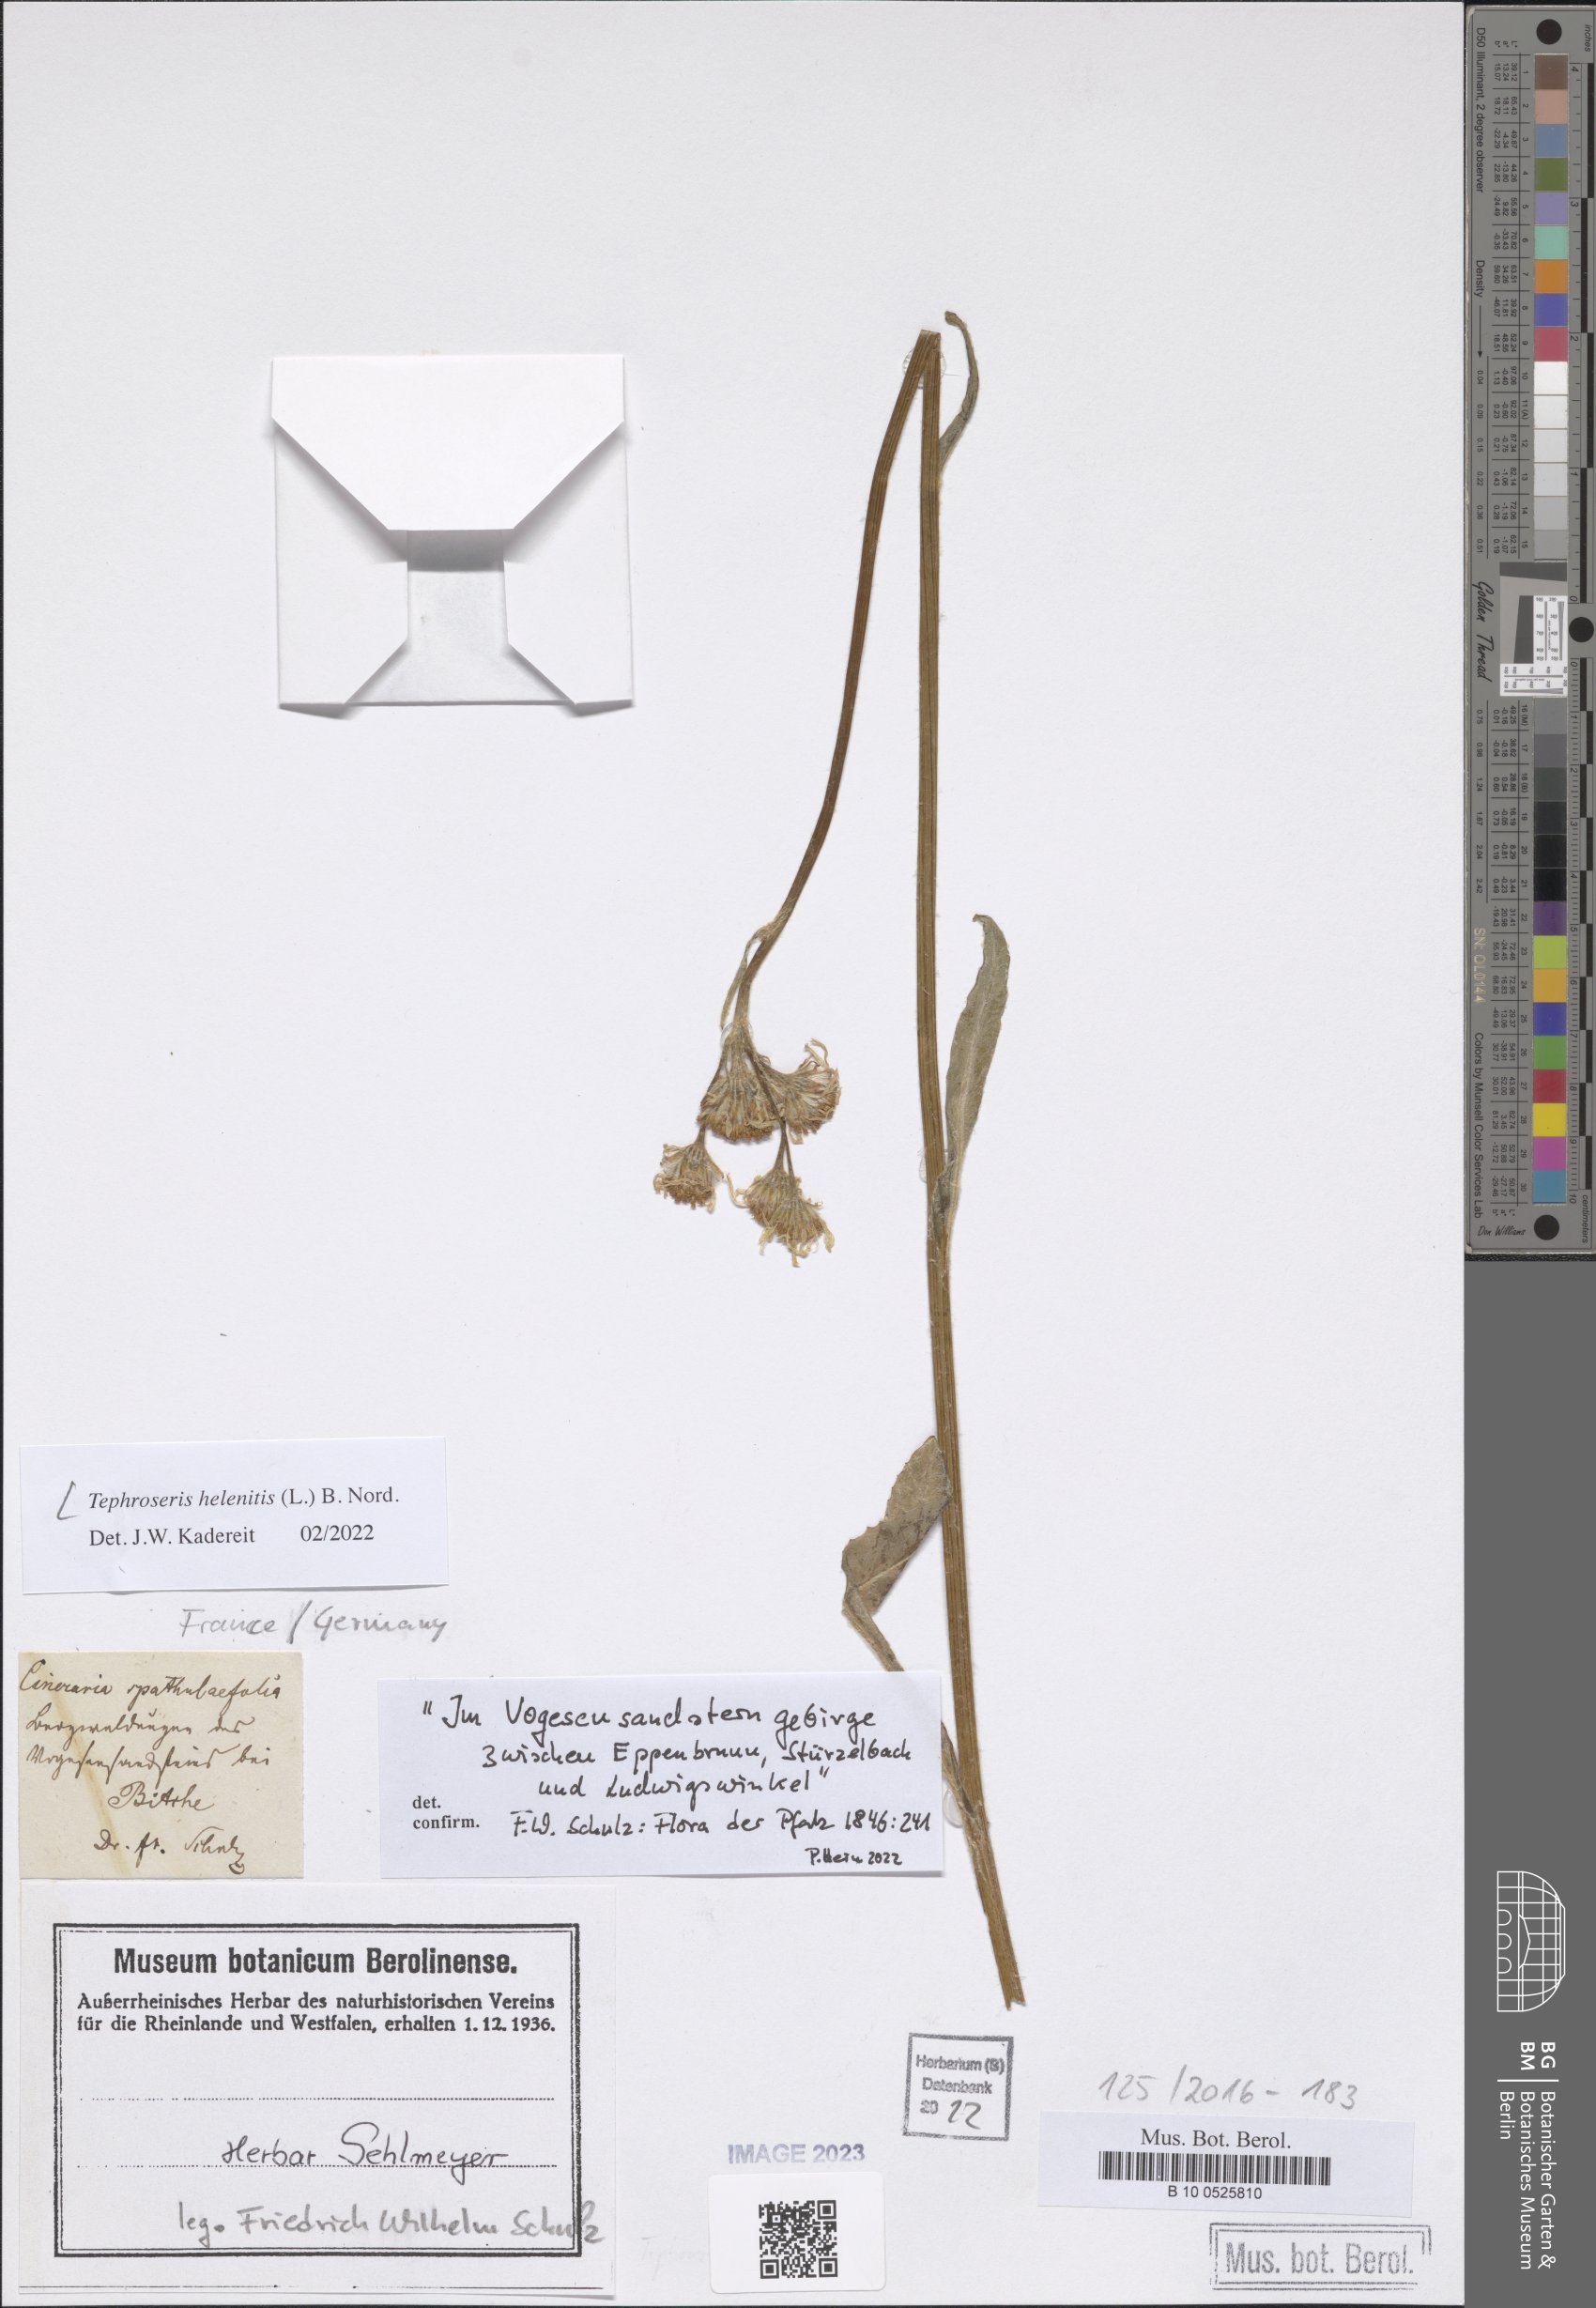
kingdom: Plantae
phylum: Tracheophyta
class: Magnoliopsida
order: Asterales
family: Asteraceae
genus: Tephroseris
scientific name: Tephroseris helenitis
